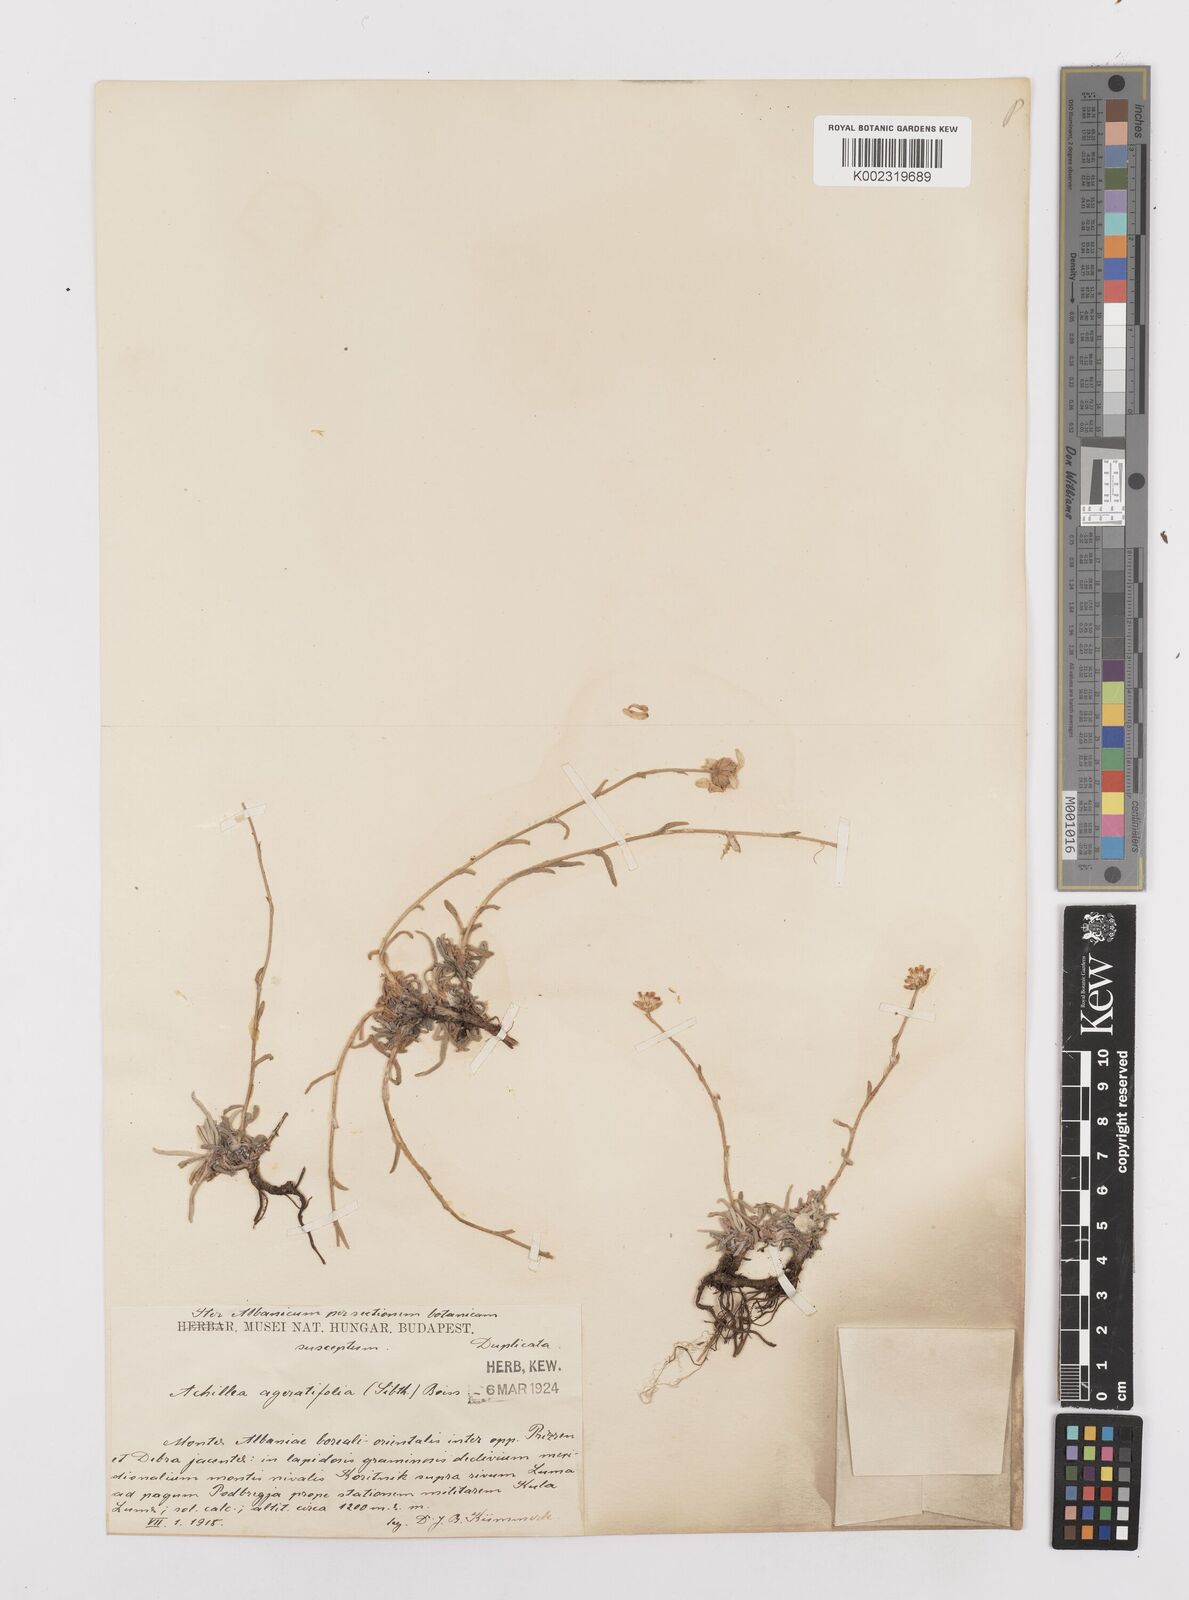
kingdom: Plantae
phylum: Tracheophyta
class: Magnoliopsida
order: Asterales
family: Asteraceae
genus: Achillea
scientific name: Achillea ageratifolia
